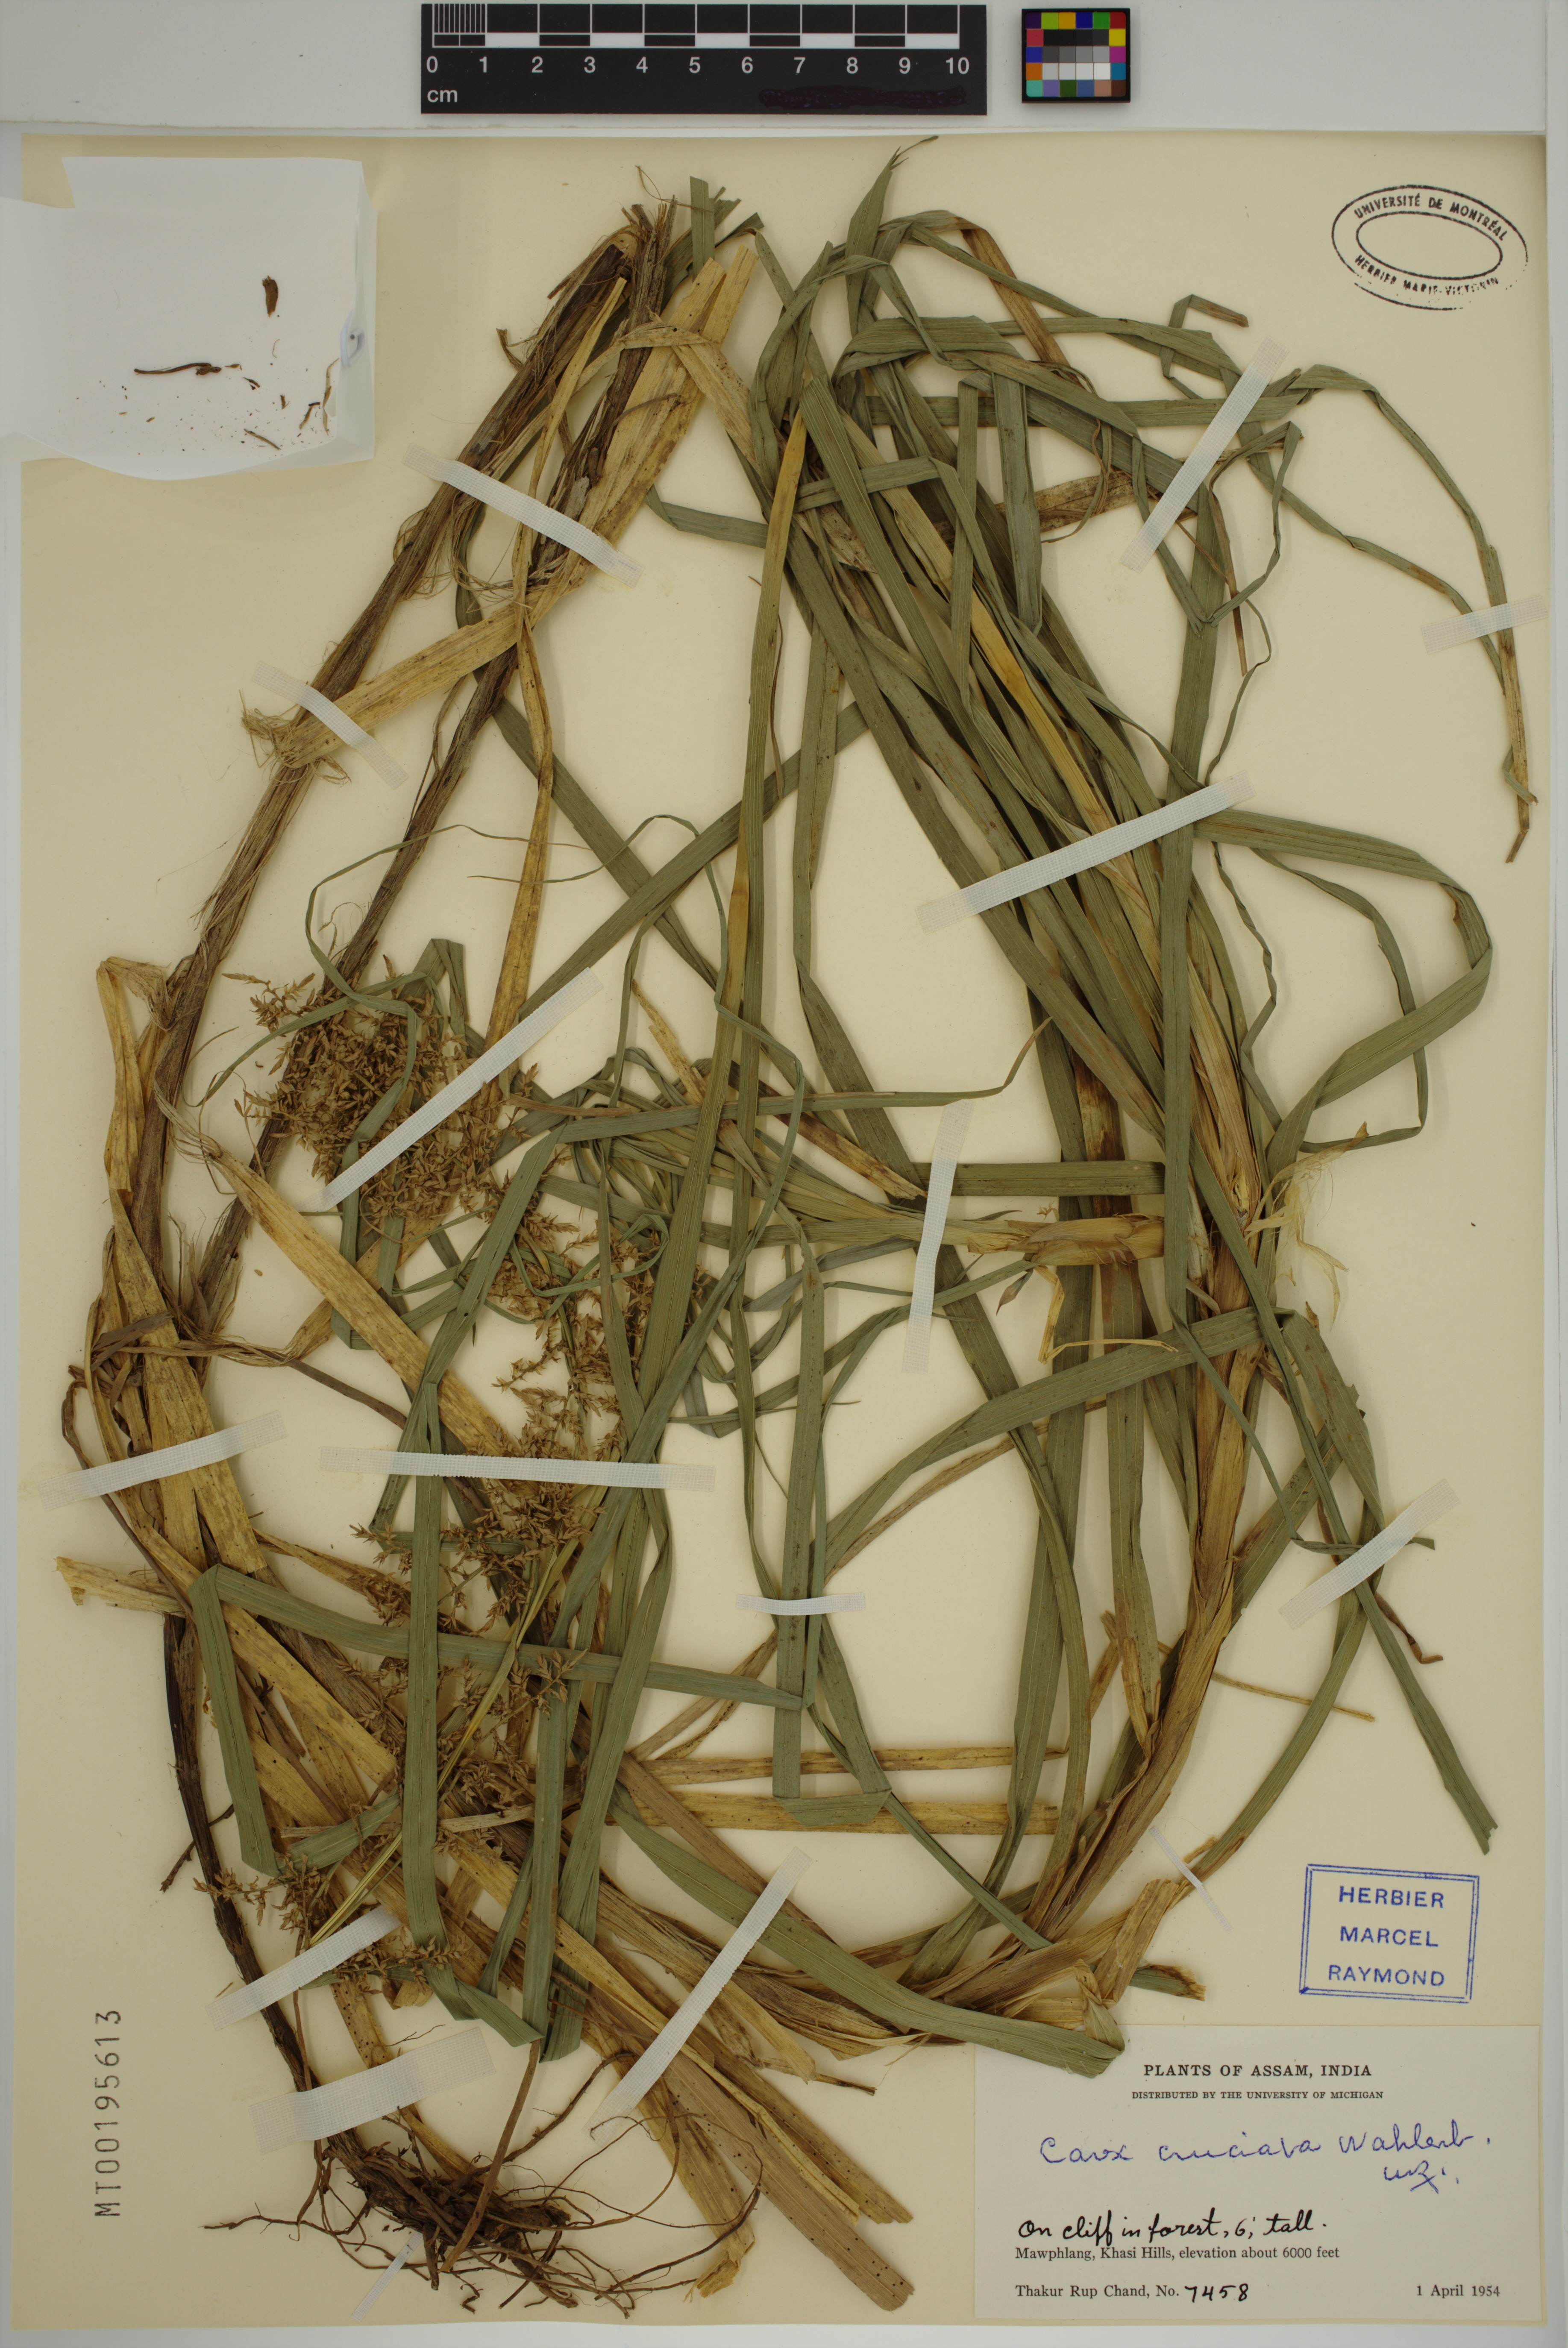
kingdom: Plantae
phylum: Tracheophyta
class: Liliopsida
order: Poales
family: Cyperaceae
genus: Carex
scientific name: Carex cruciata
